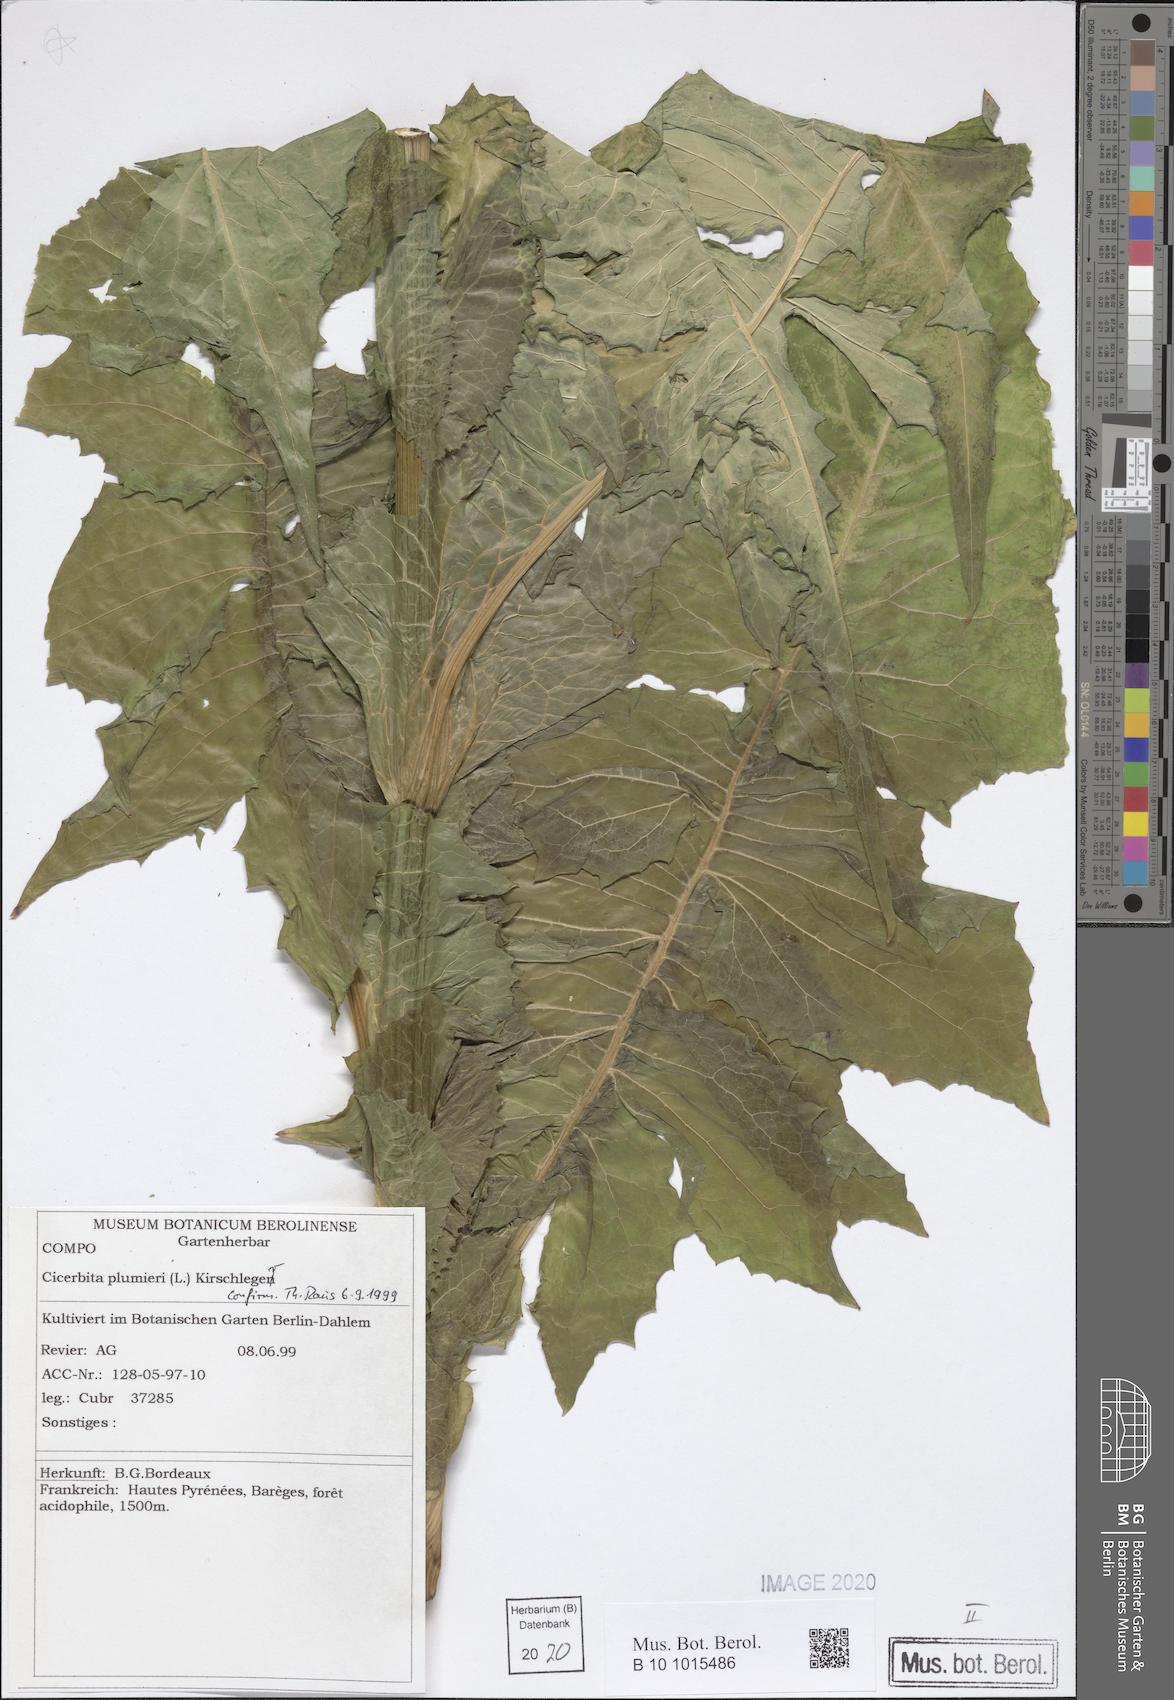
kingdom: Plantae
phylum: Tracheophyta
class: Magnoliopsida
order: Asterales
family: Asteraceae
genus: Lactuca
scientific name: Lactuca plumieri
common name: Hairless blue-sow-thistle
